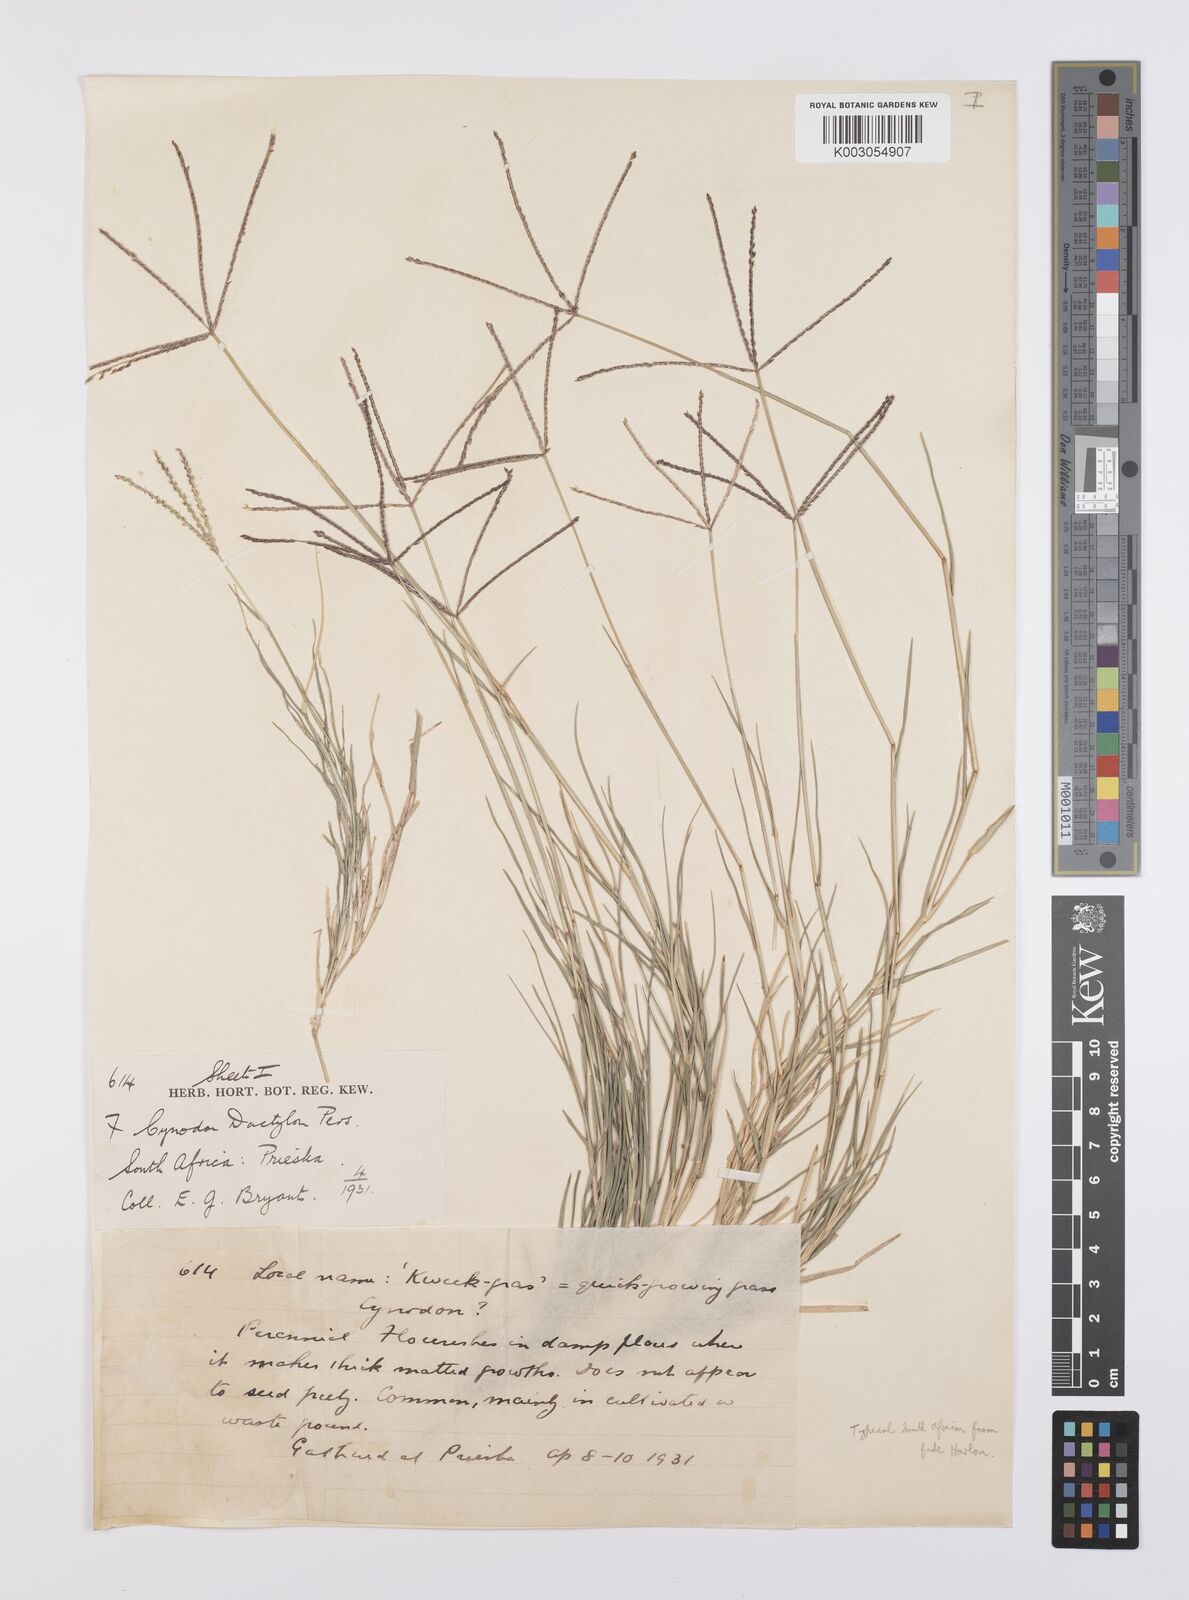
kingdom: Plantae
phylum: Tracheophyta
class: Liliopsida
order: Poales
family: Poaceae
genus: Cynodon
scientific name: Cynodon dactylon
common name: Bermuda grass
